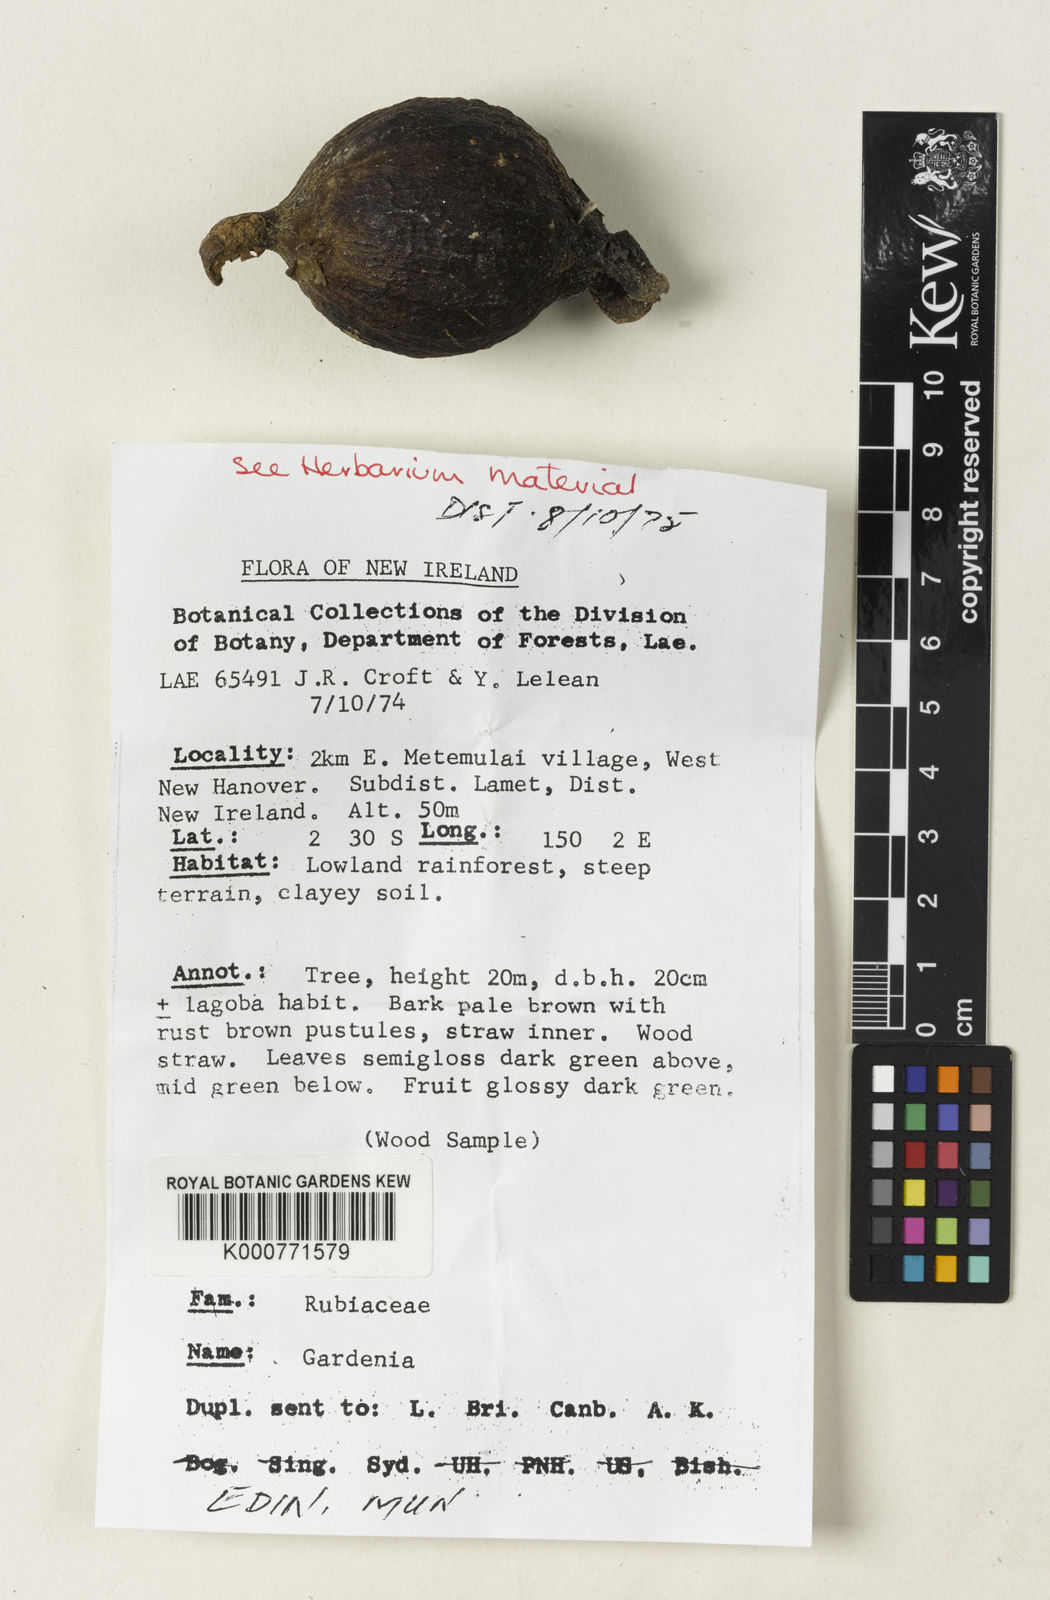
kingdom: Plantae
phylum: Tracheophyta
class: Magnoliopsida
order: Gentianales
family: Rubiaceae
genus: Gardenia
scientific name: Gardenia
